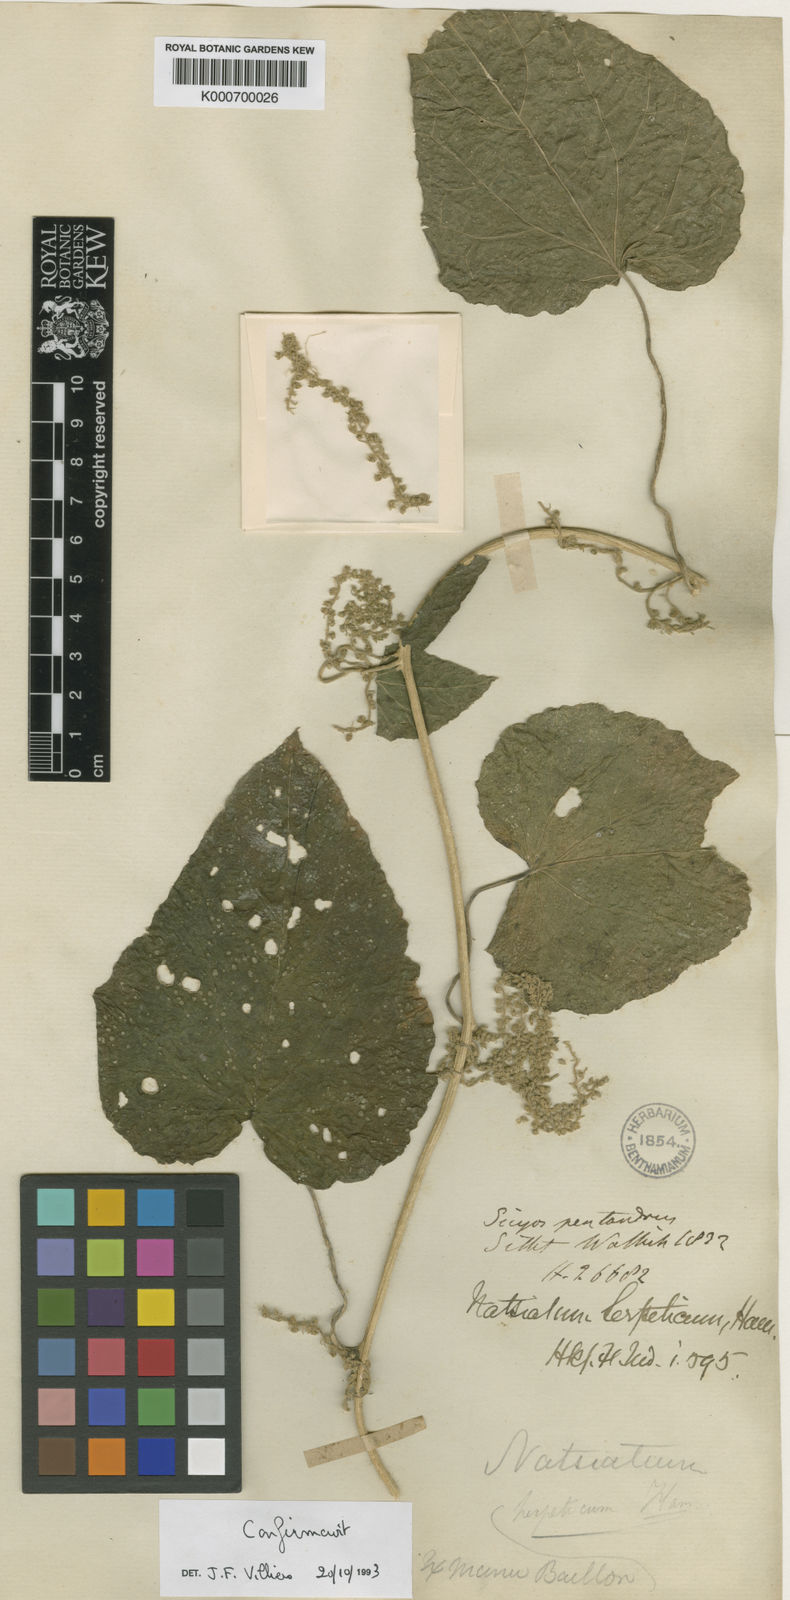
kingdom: Plantae
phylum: Tracheophyta
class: Magnoliopsida
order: Icacinales
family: Icacinaceae
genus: Natsiatum
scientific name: Natsiatum
